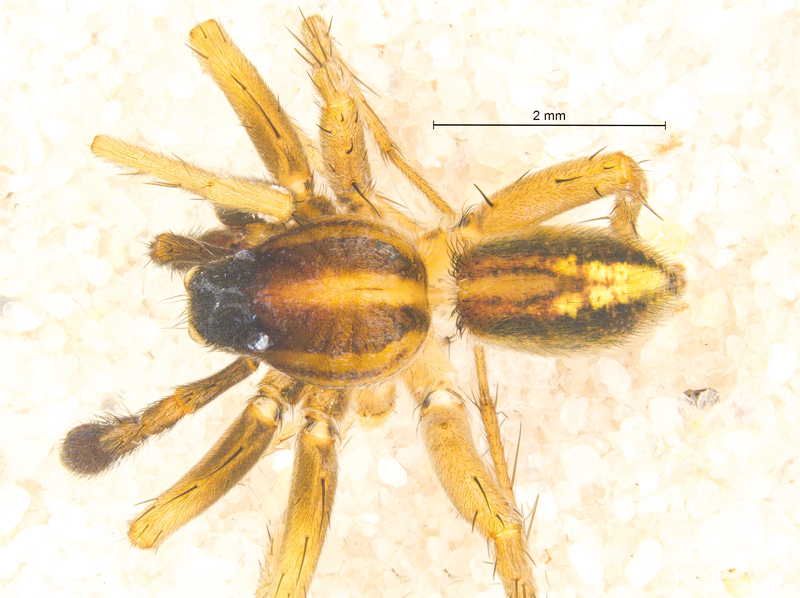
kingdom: Animalia
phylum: Arthropoda
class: Arachnida
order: Araneae
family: Lycosidae
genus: Pardosa
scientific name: Pardosa bifasciata
